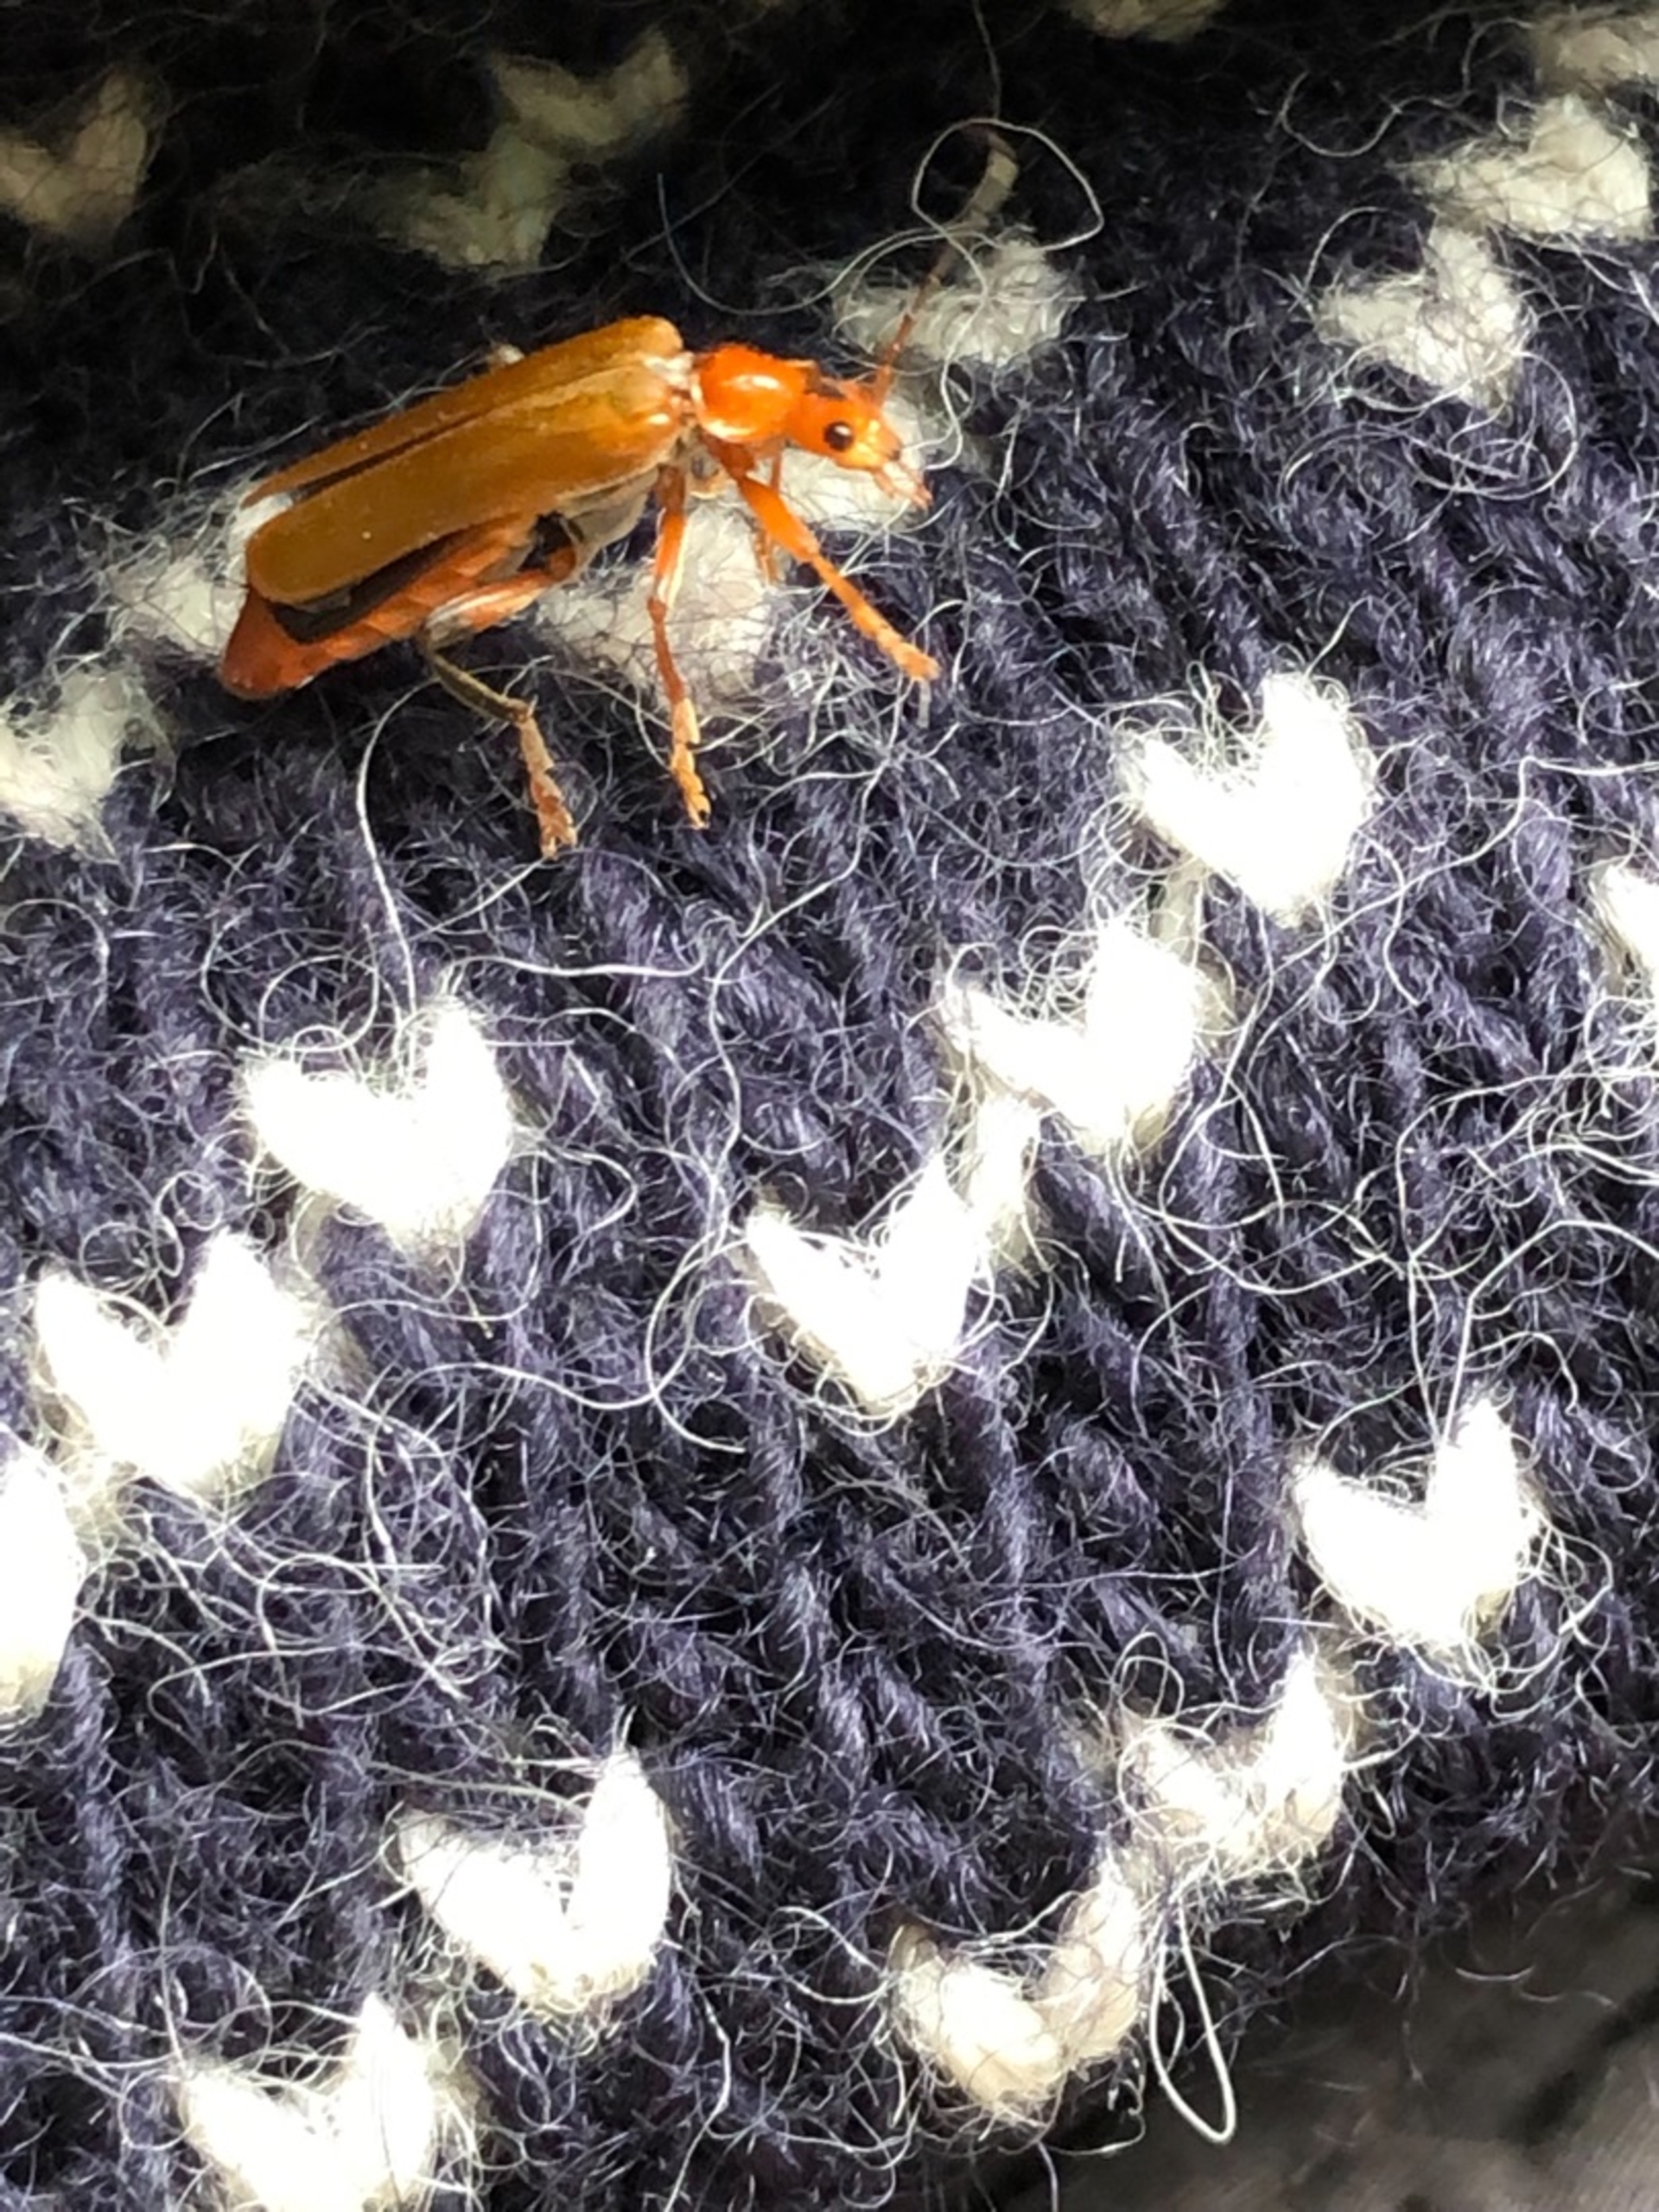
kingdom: Animalia
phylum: Arthropoda
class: Insecta
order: Coleoptera
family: Cantharidae
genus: Cantharis
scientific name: Cantharis livida
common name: Gul blødvinge
